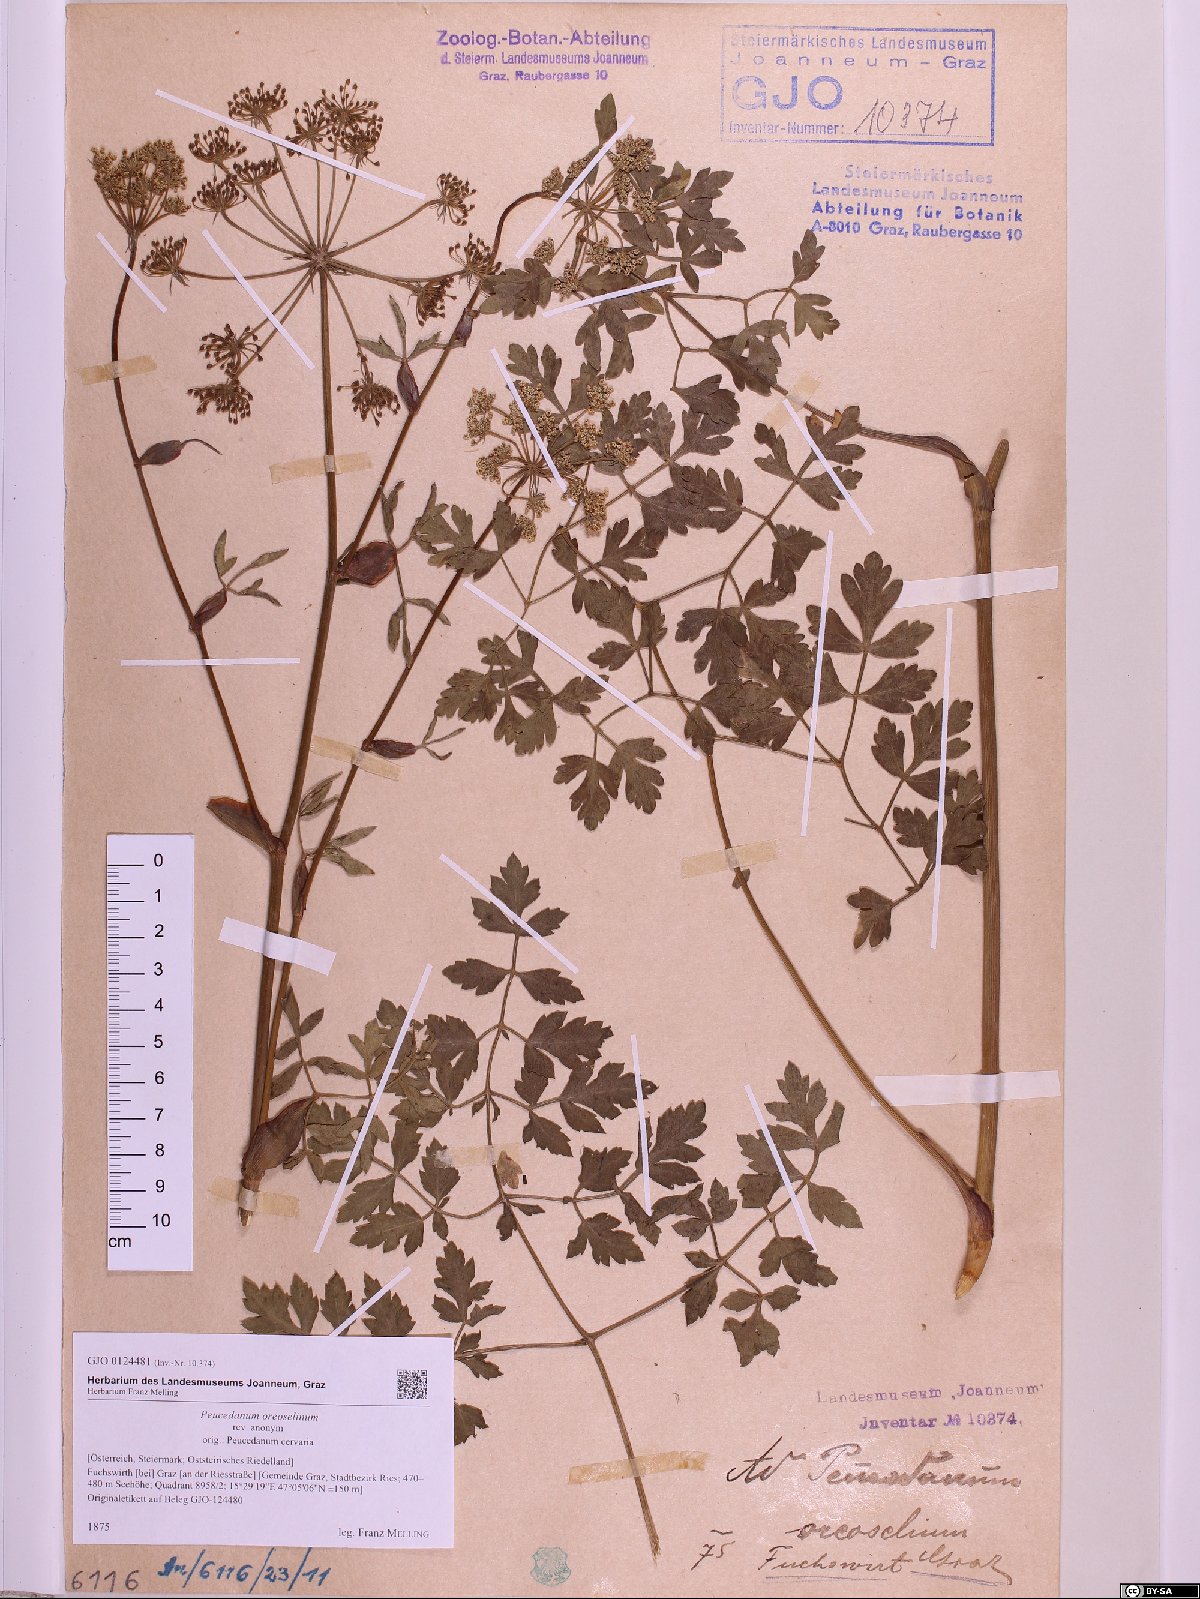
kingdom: Plantae
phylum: Tracheophyta
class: Magnoliopsida
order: Apiales
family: Apiaceae
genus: Oreoselinum
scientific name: Oreoselinum nigrum
